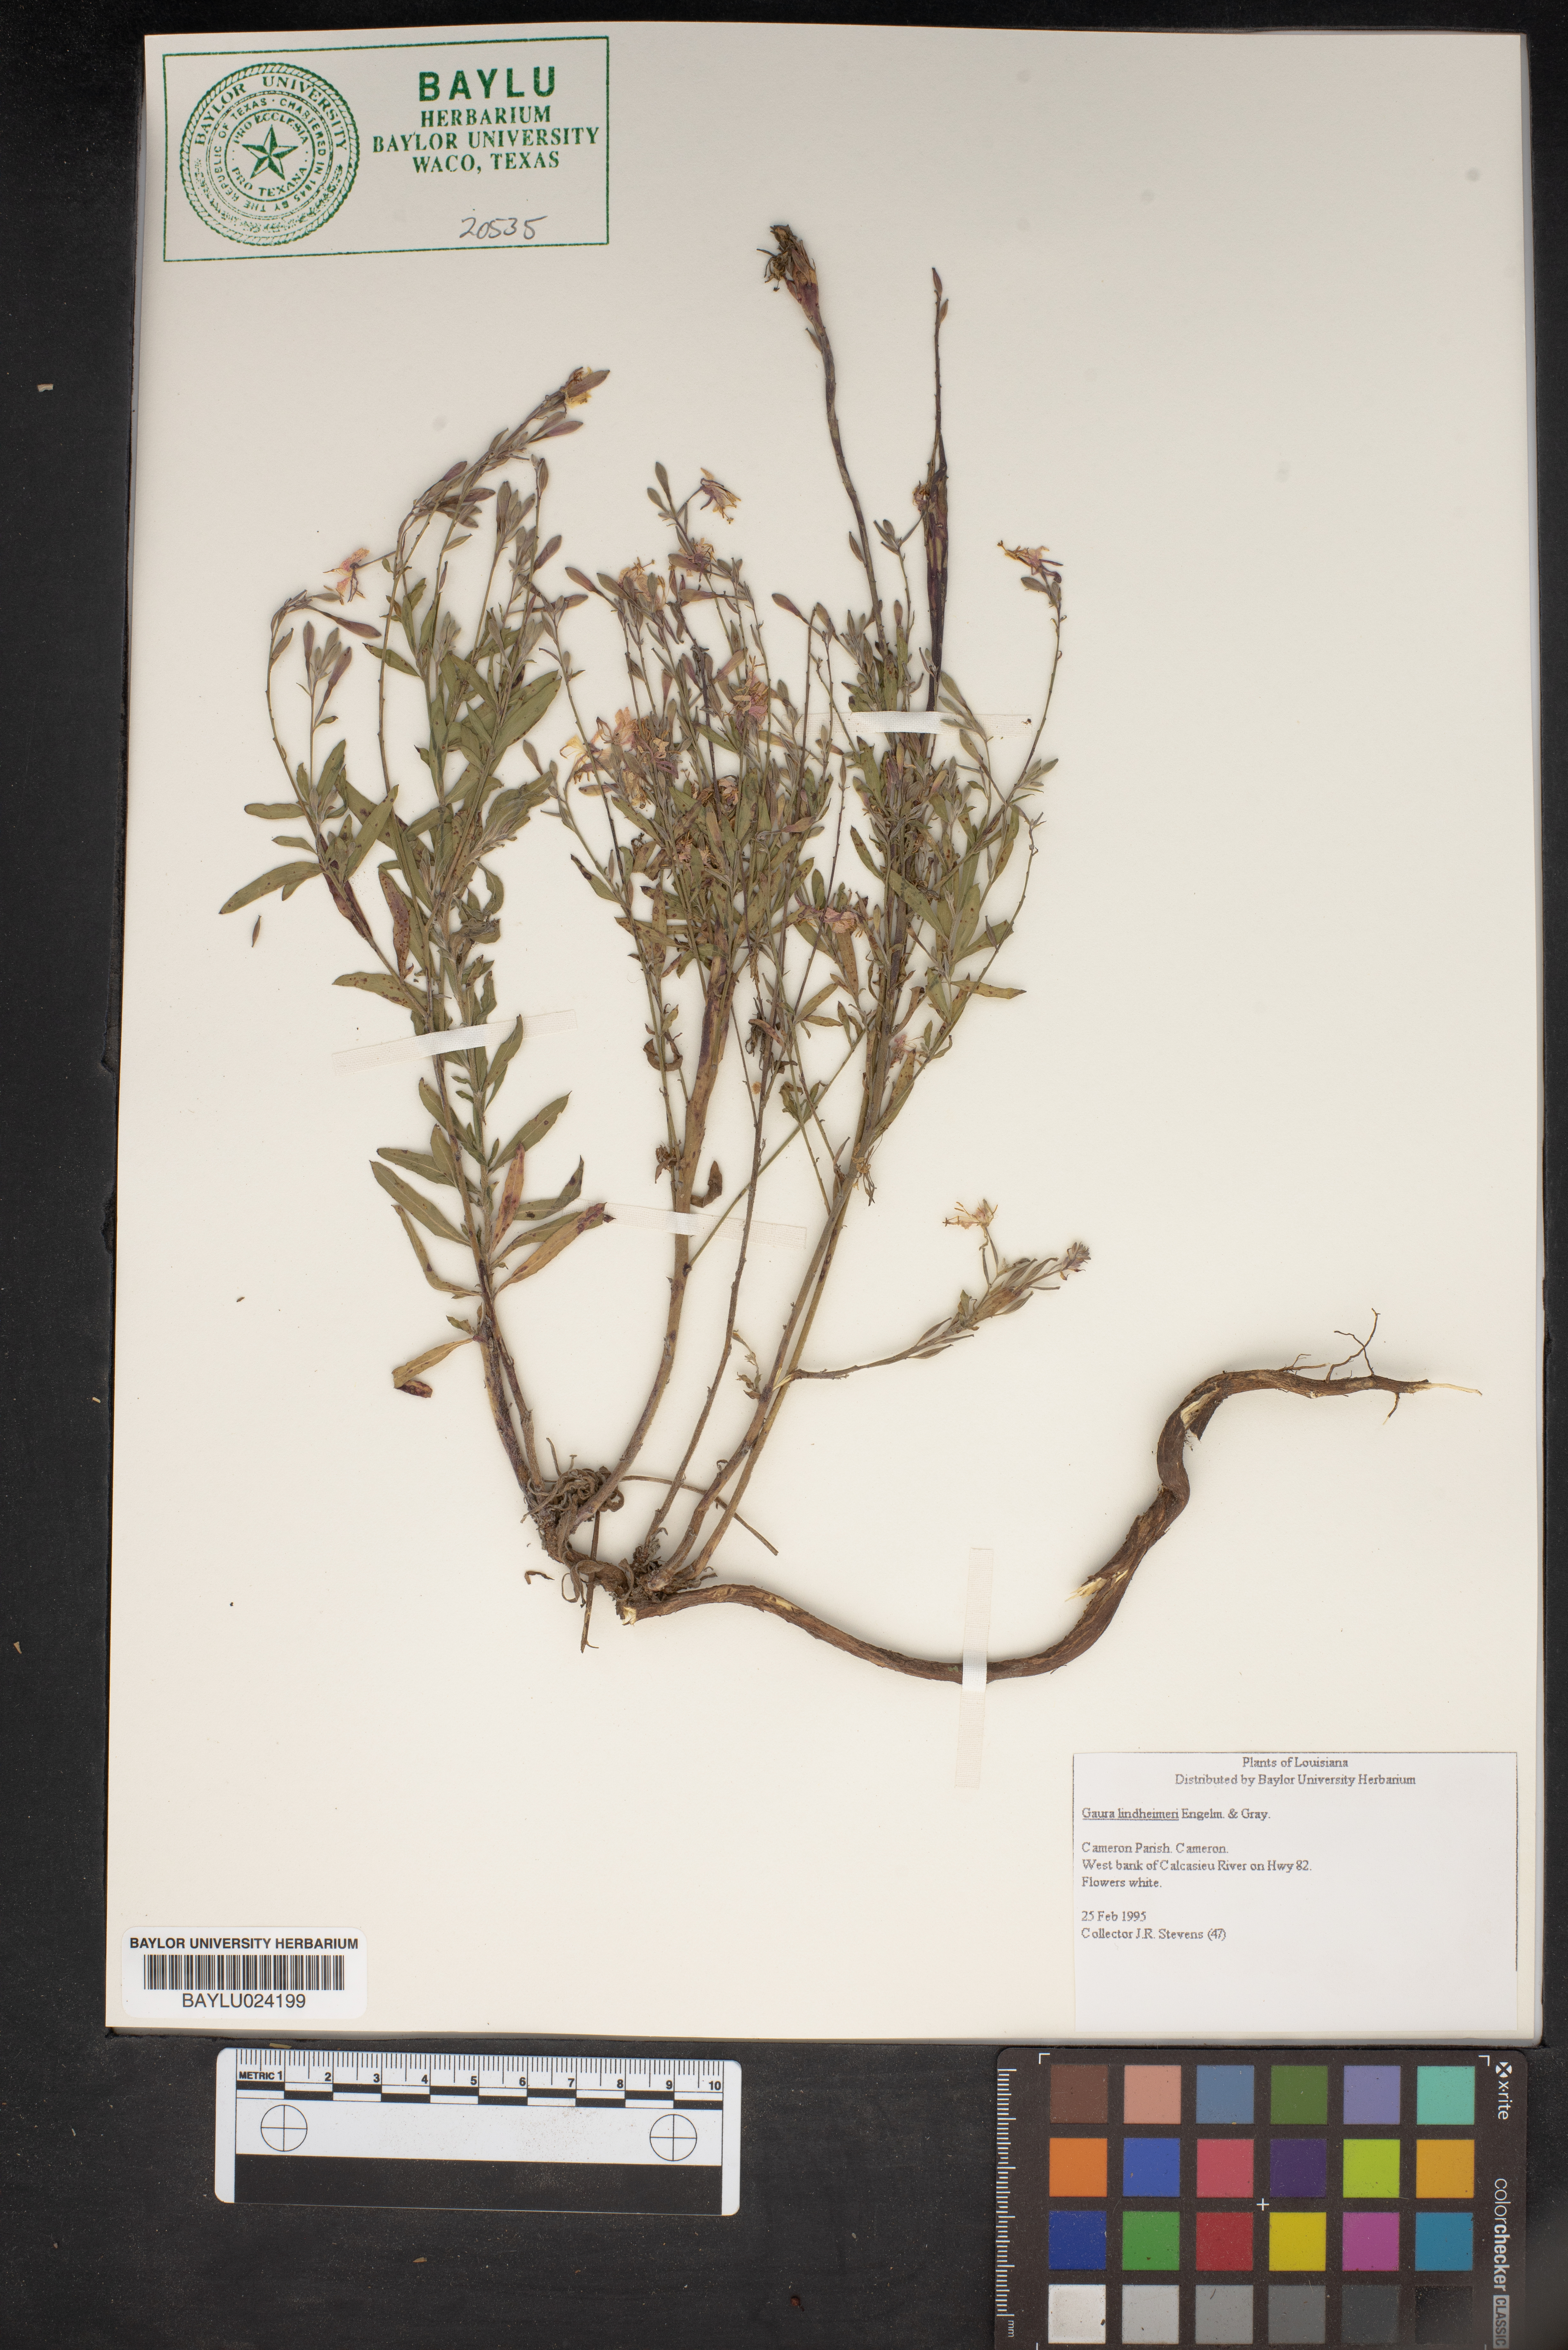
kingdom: Plantae
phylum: Tracheophyta
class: Magnoliopsida
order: Myrtales
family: Onagraceae
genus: Oenothera
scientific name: Oenothera lindheimeri
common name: Lindheimer's beeblossom
